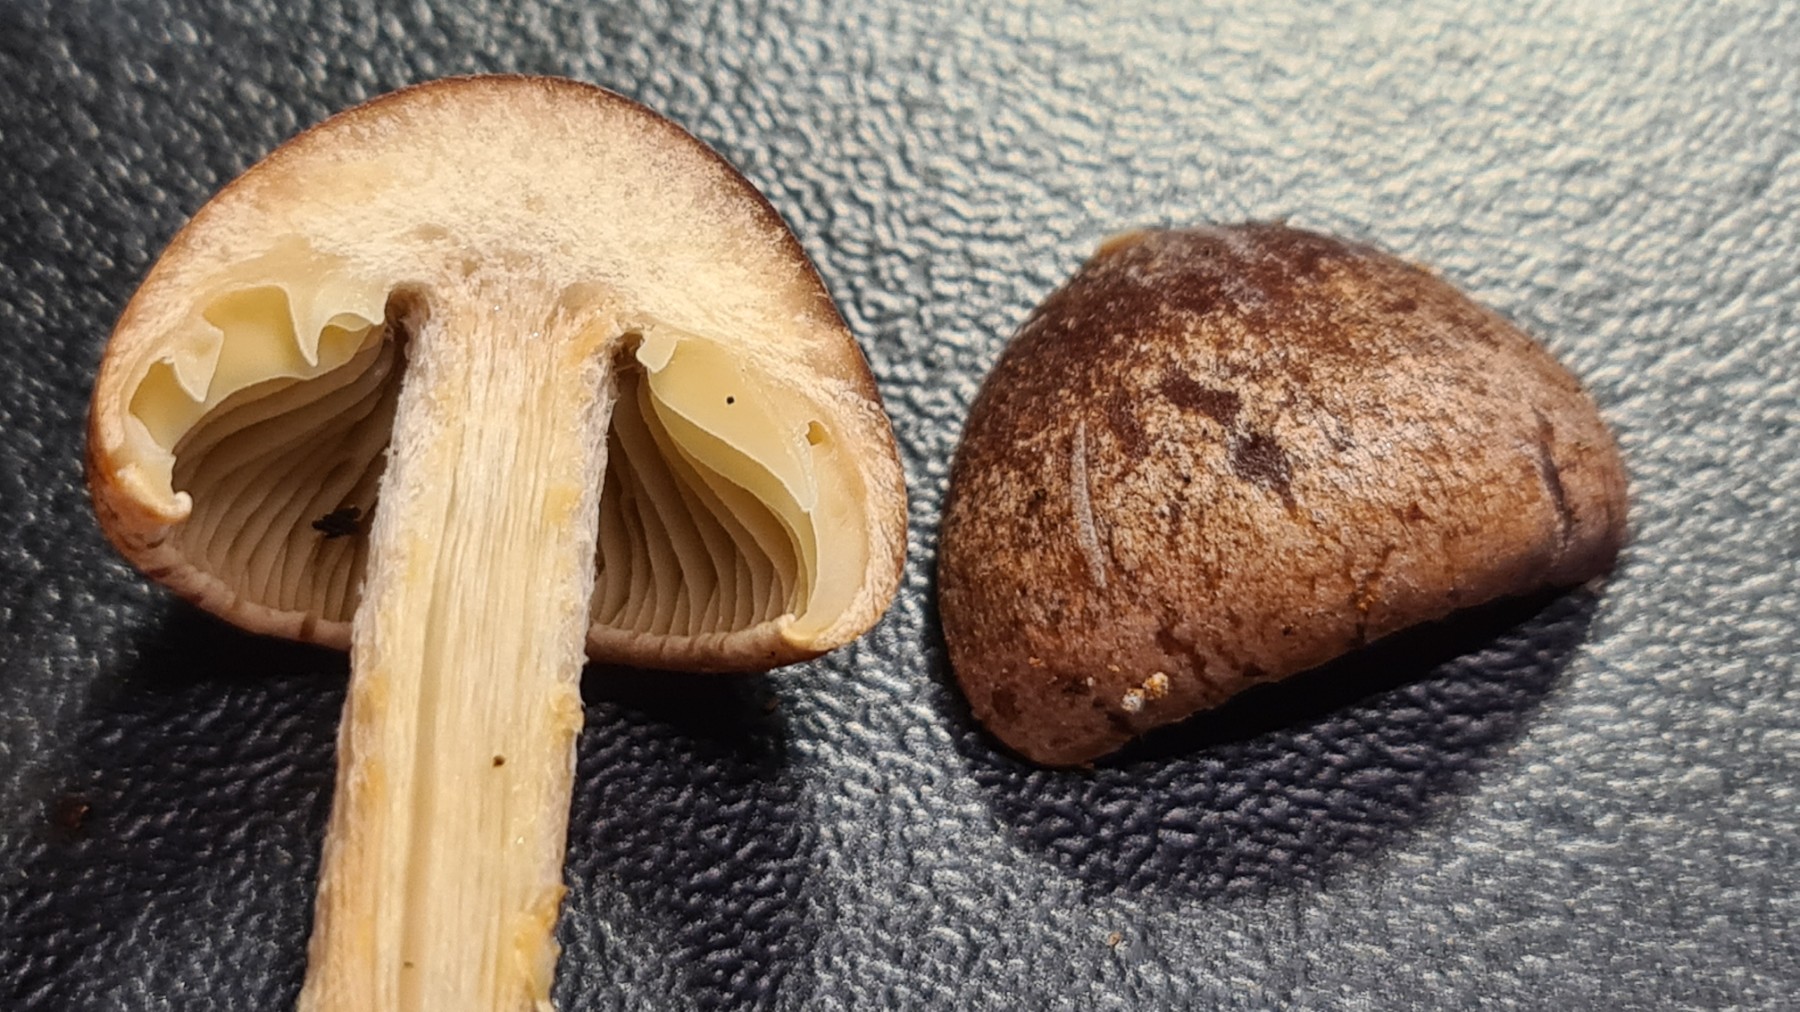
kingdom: Fungi
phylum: Basidiomycota
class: Agaricomycetes
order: Agaricales
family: Omphalotaceae
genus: Collybiopsis
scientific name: Collybiopsis peronata
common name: bestøvlet fladhat
